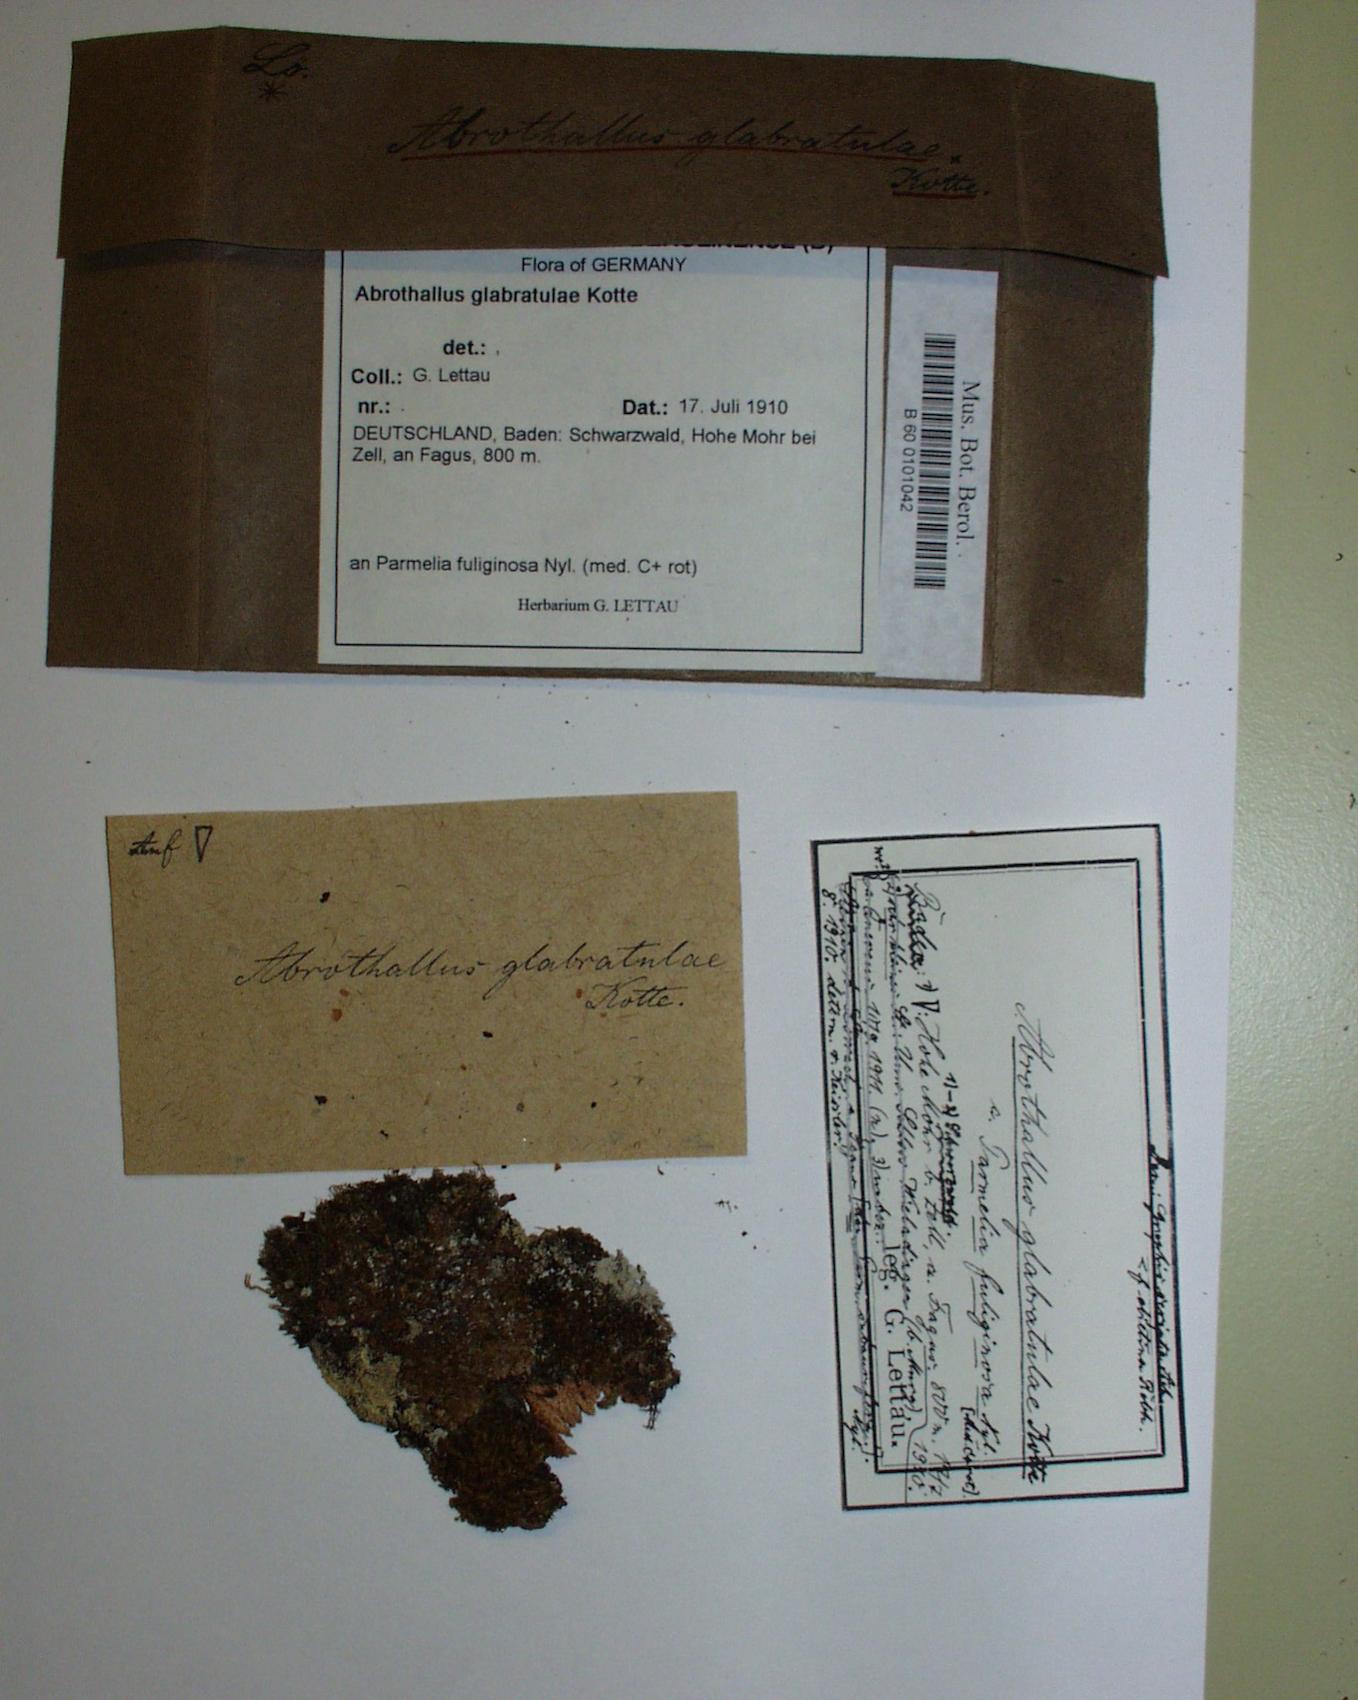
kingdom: Fungi
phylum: Ascomycota
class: Dothideomycetes
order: Abrothallales
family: Abrothallaceae
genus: Abrothallus
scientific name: Abrothallus parmeliarum
